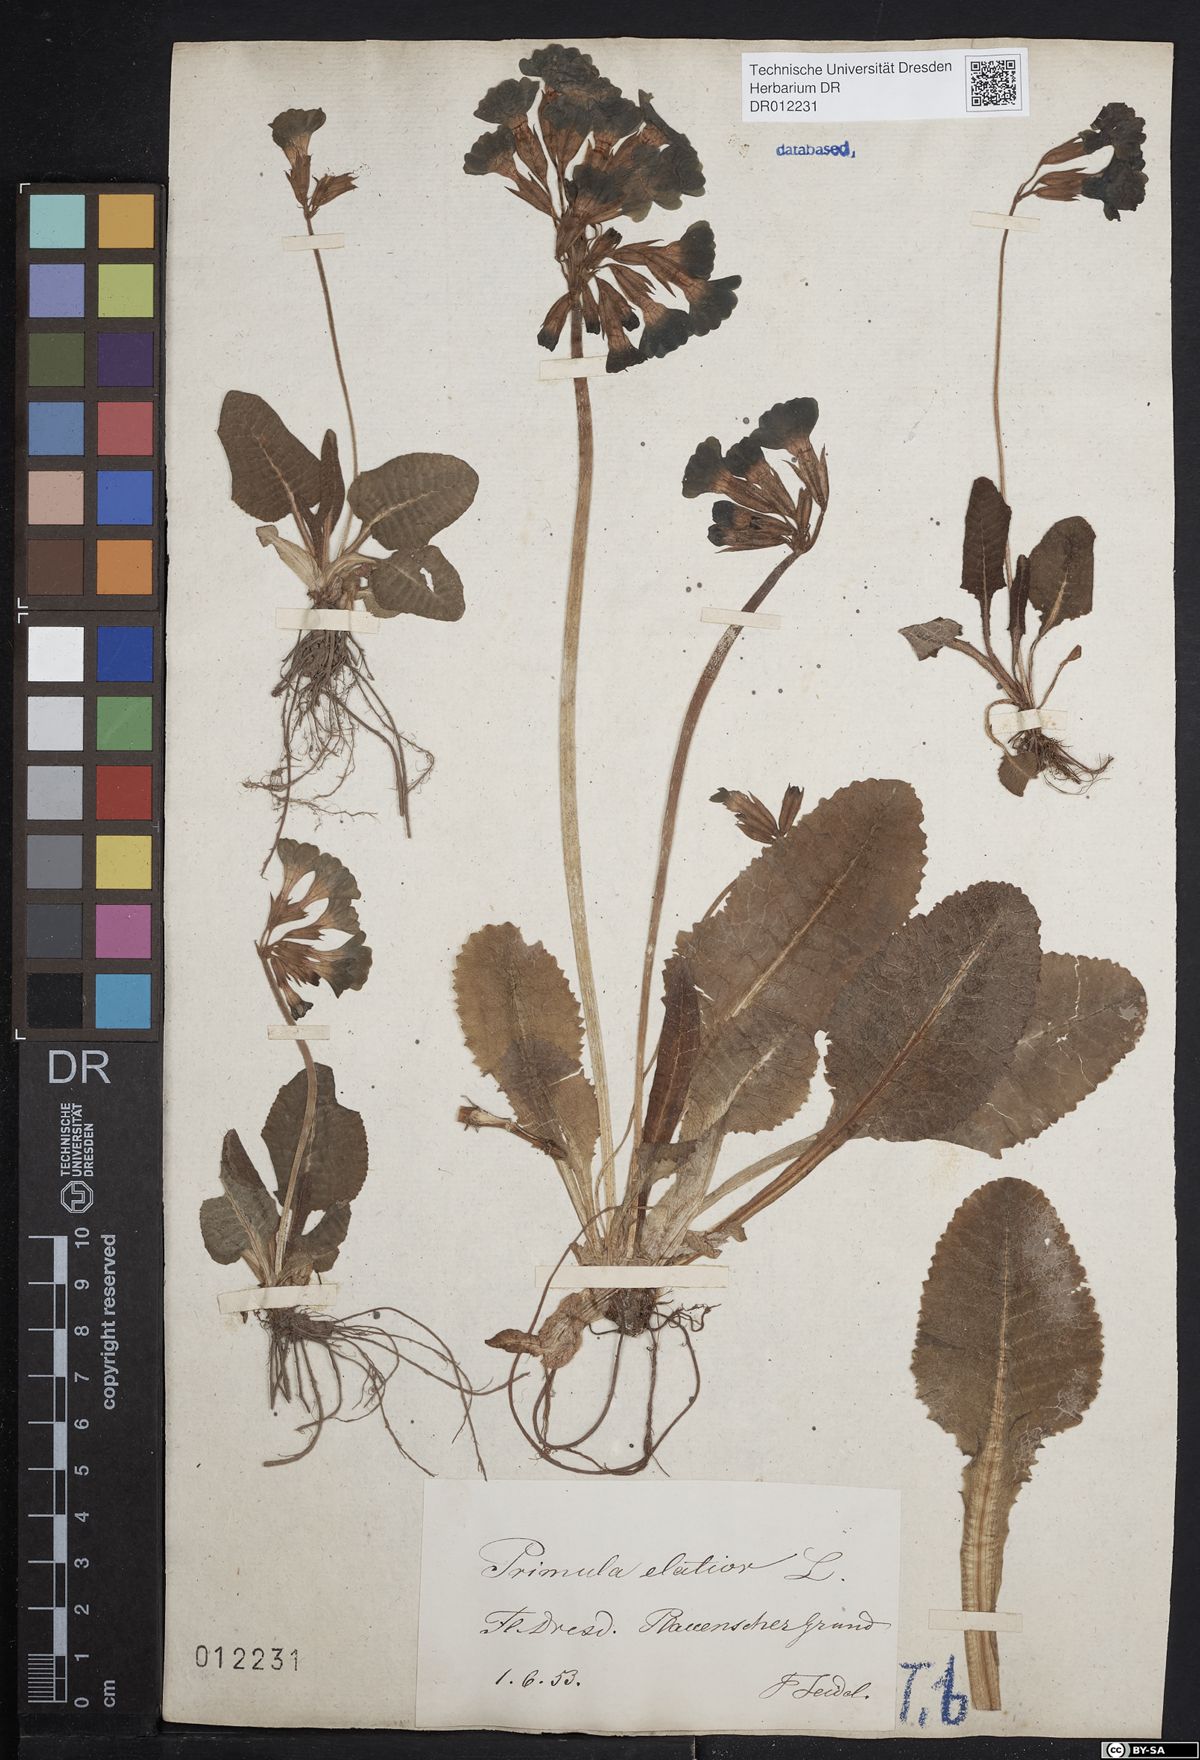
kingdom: Plantae
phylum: Tracheophyta
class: Magnoliopsida
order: Ericales
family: Primulaceae
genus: Primula
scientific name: Primula elatior
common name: Oxlip
